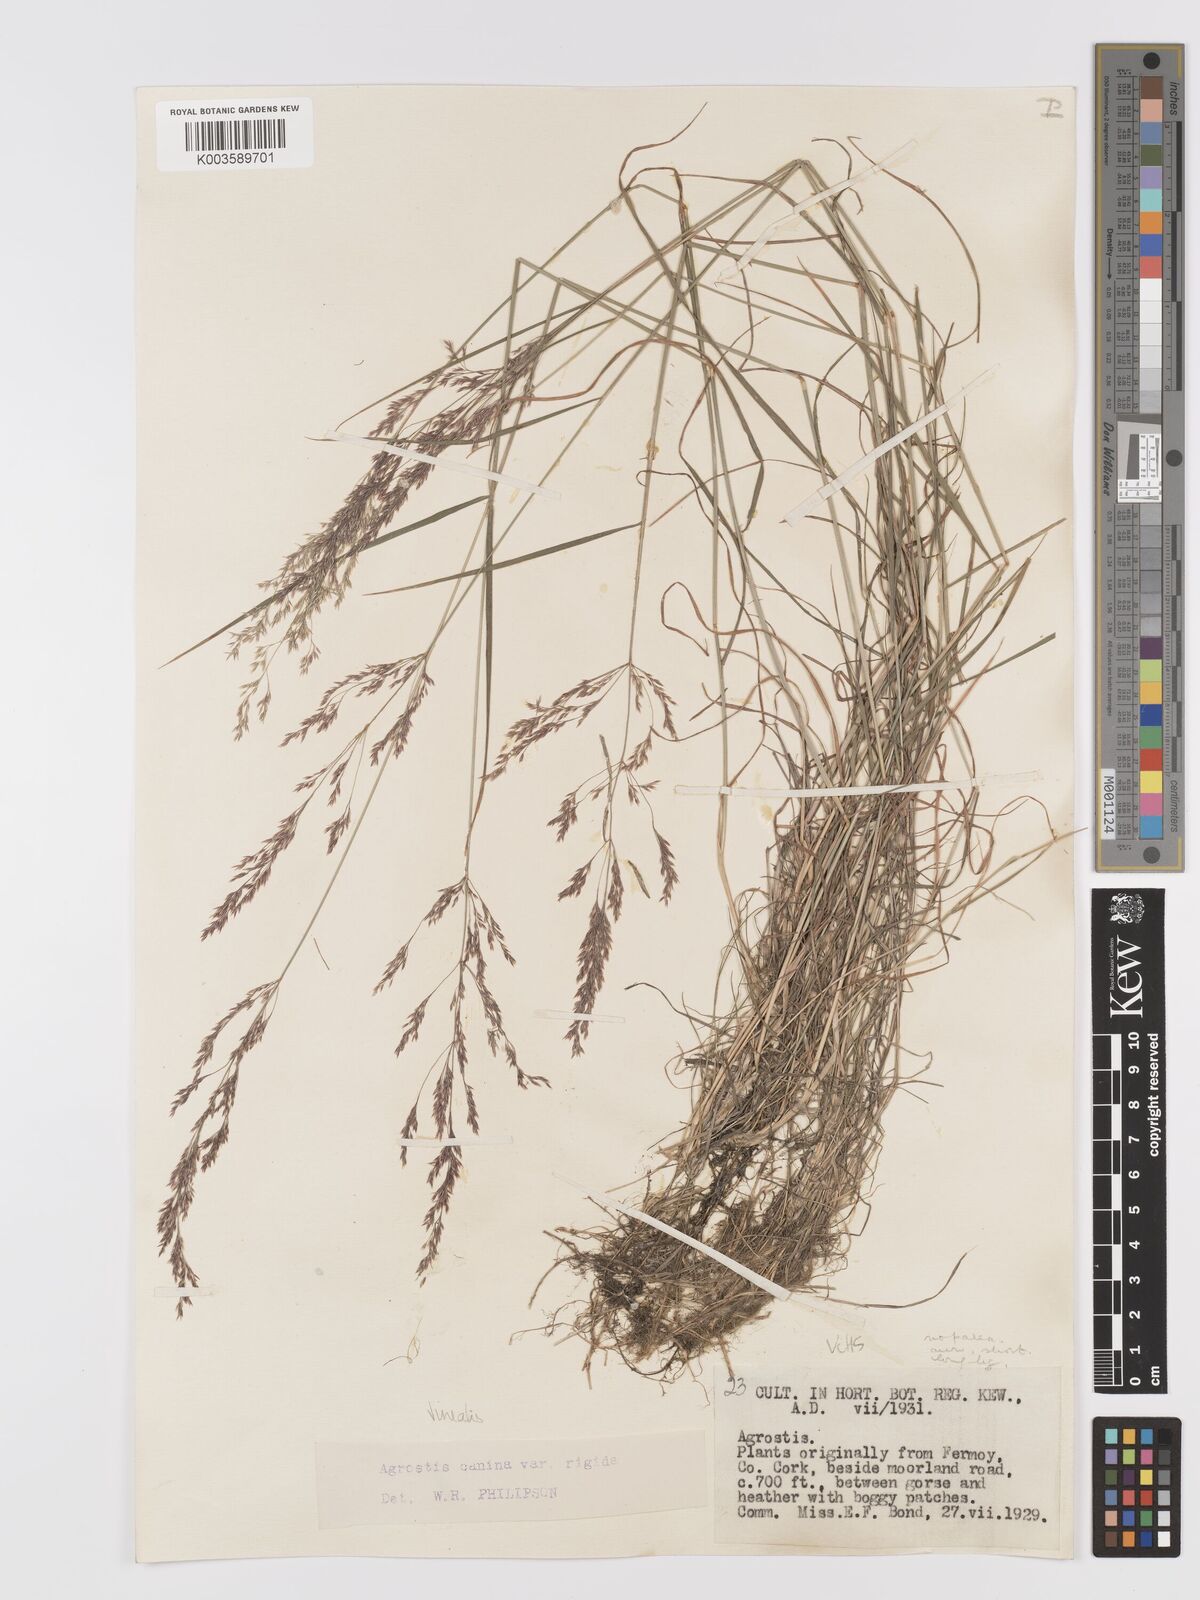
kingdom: Plantae
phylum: Tracheophyta
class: Liliopsida
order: Poales
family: Poaceae
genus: Agrostis
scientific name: Agrostis
